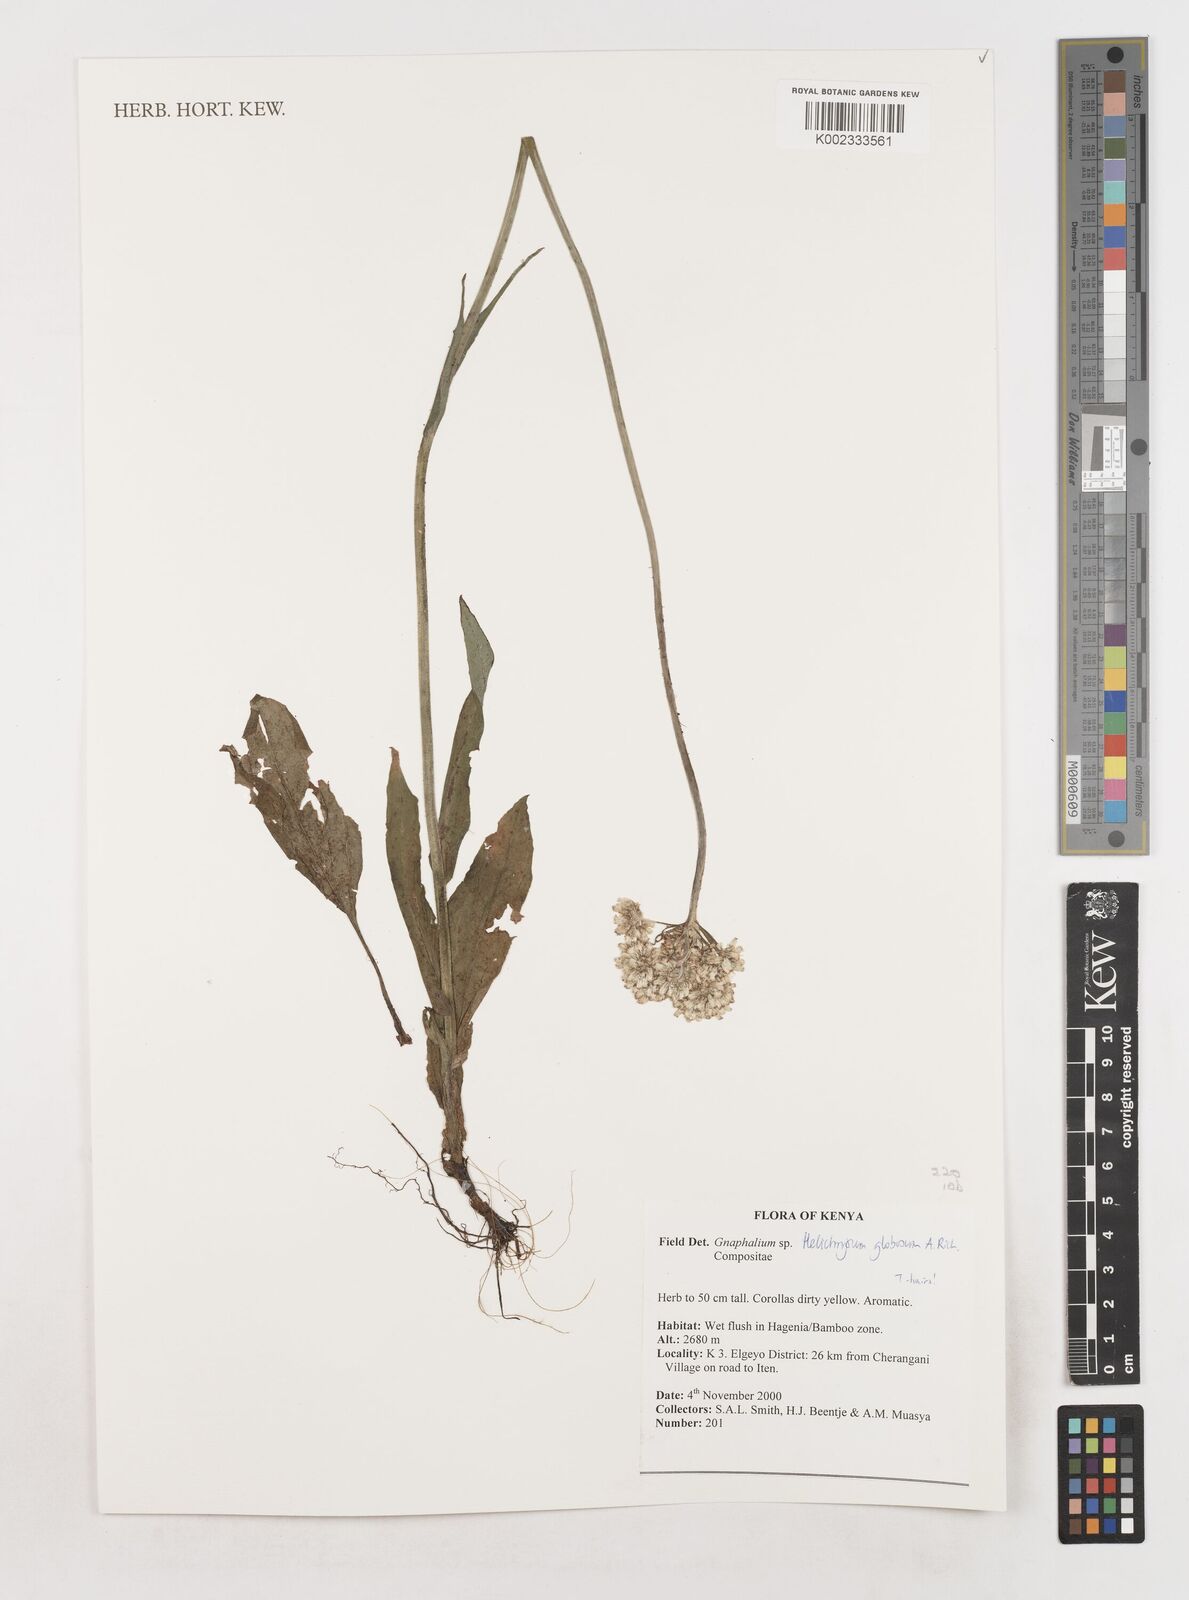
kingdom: Plantae
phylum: Tracheophyta
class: Magnoliopsida
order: Asterales
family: Asteraceae
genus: Helichrysum
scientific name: Helichrysum globosum
